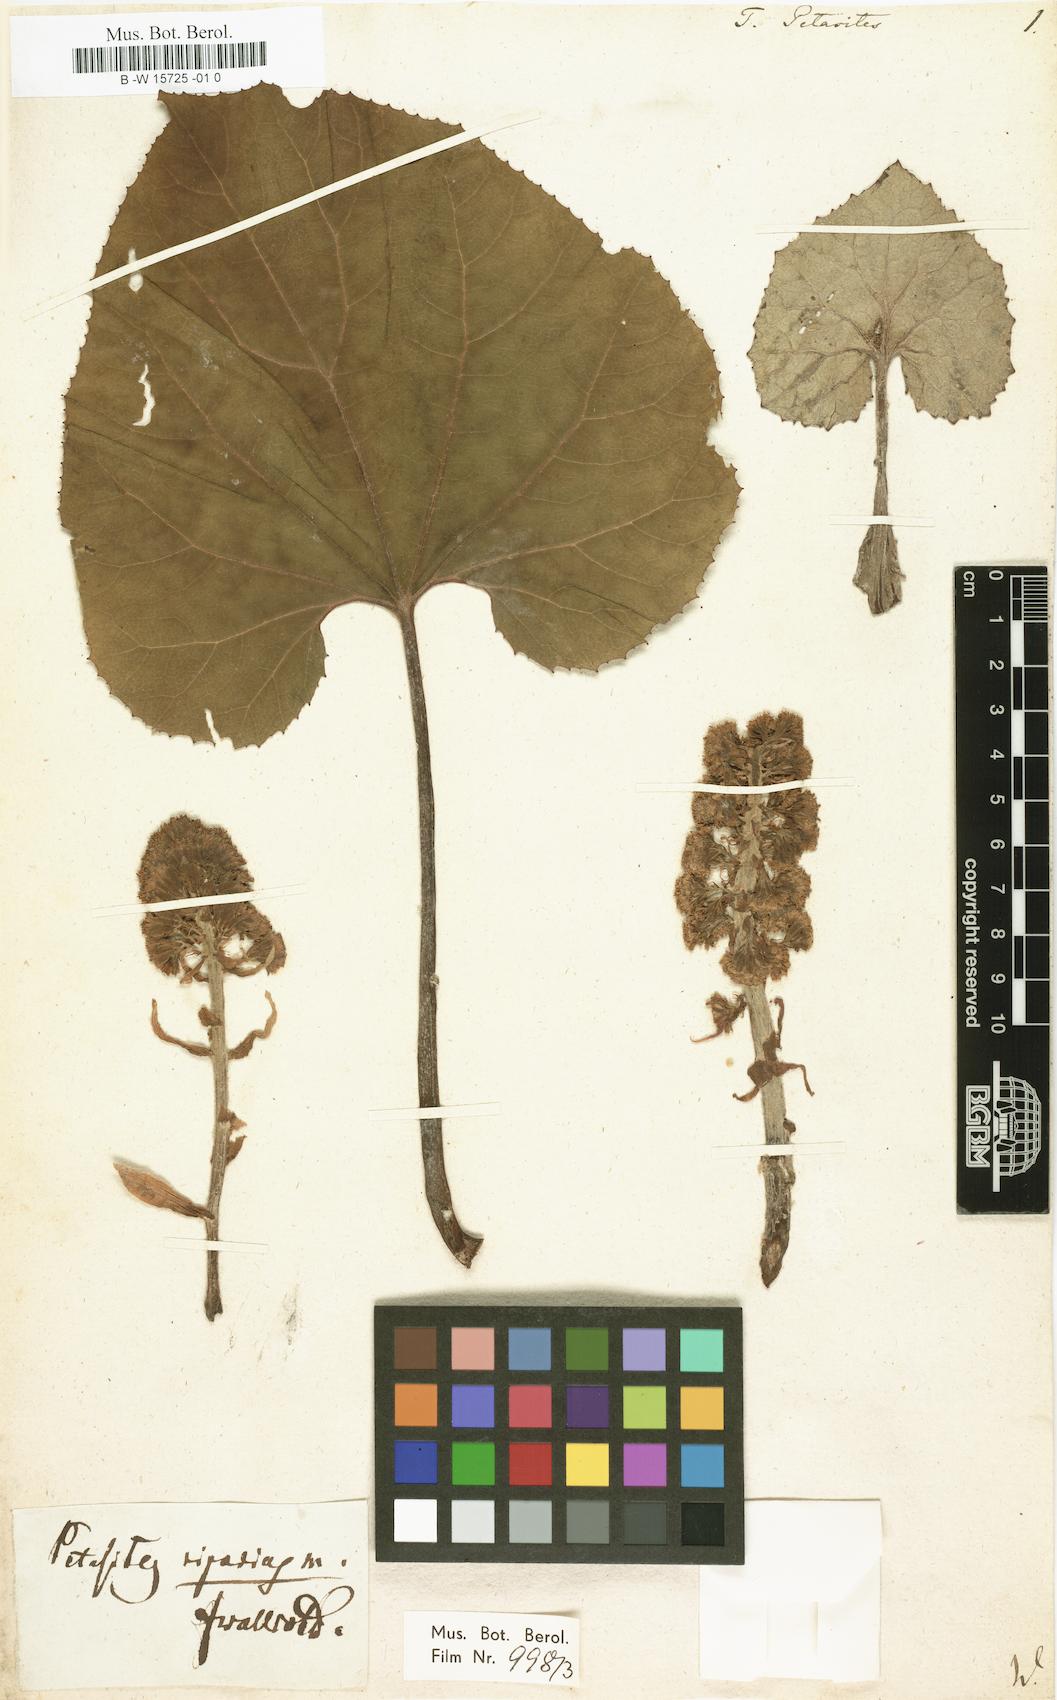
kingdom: Plantae
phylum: Tracheophyta
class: Magnoliopsida
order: Asterales
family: Asteraceae
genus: Petasites
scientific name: Petasites japonicus
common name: Giant butterbur
